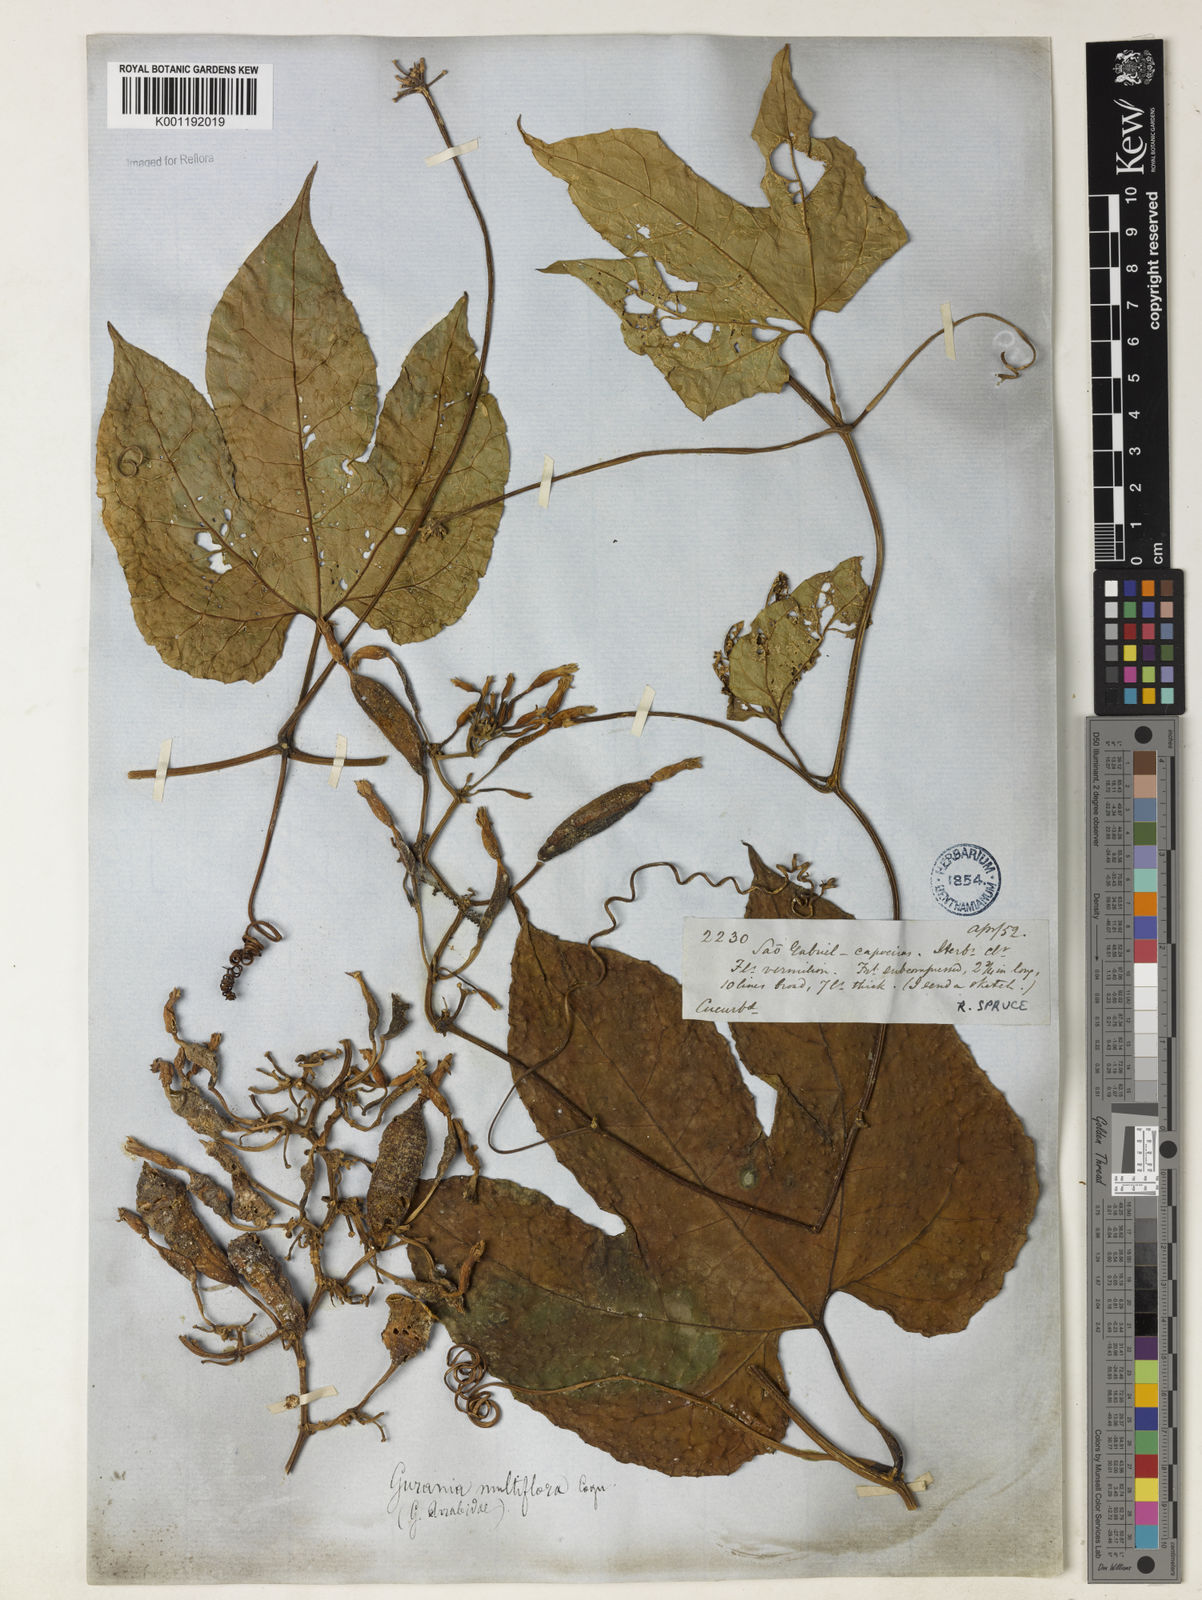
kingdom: Plantae
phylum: Tracheophyta
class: Magnoliopsida
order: Cucurbitales
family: Cucurbitaceae
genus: Gurania
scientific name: Gurania acuminata
